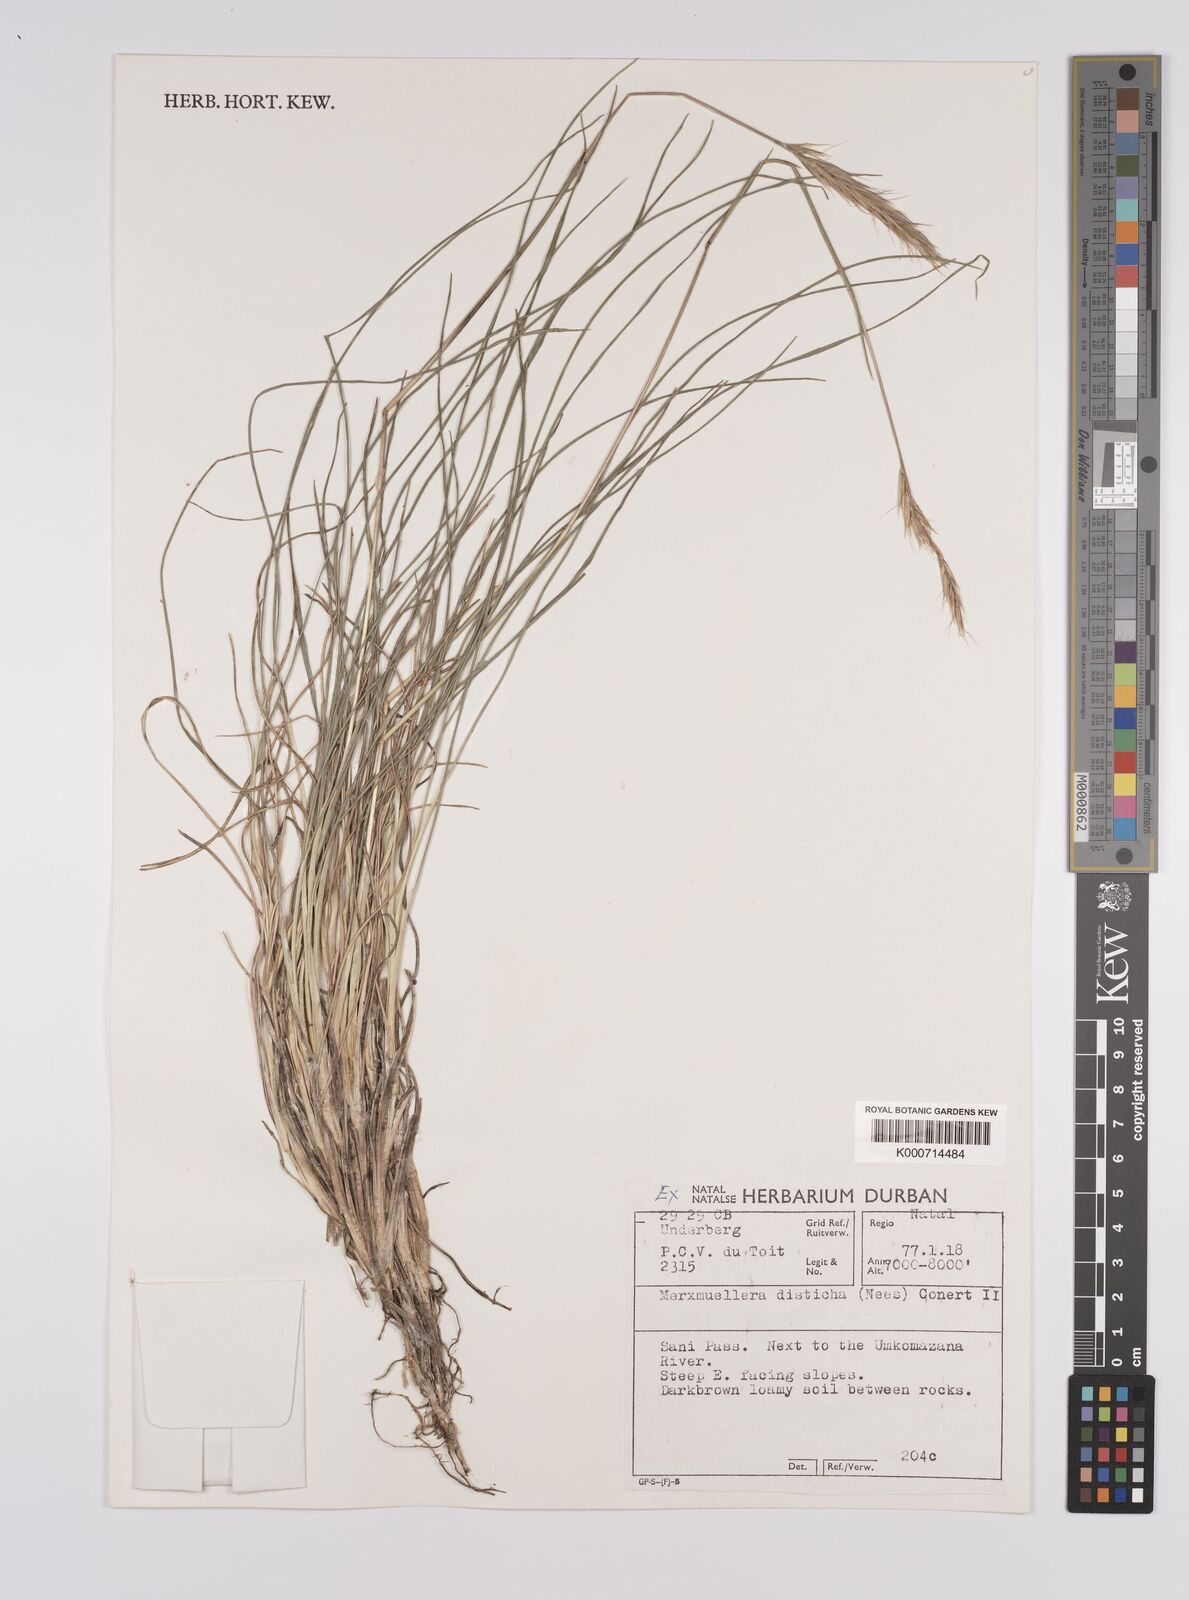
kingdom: Plantae
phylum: Tracheophyta
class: Liliopsida
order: Poales
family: Poaceae
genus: Tenaxia
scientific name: Tenaxia disticha
